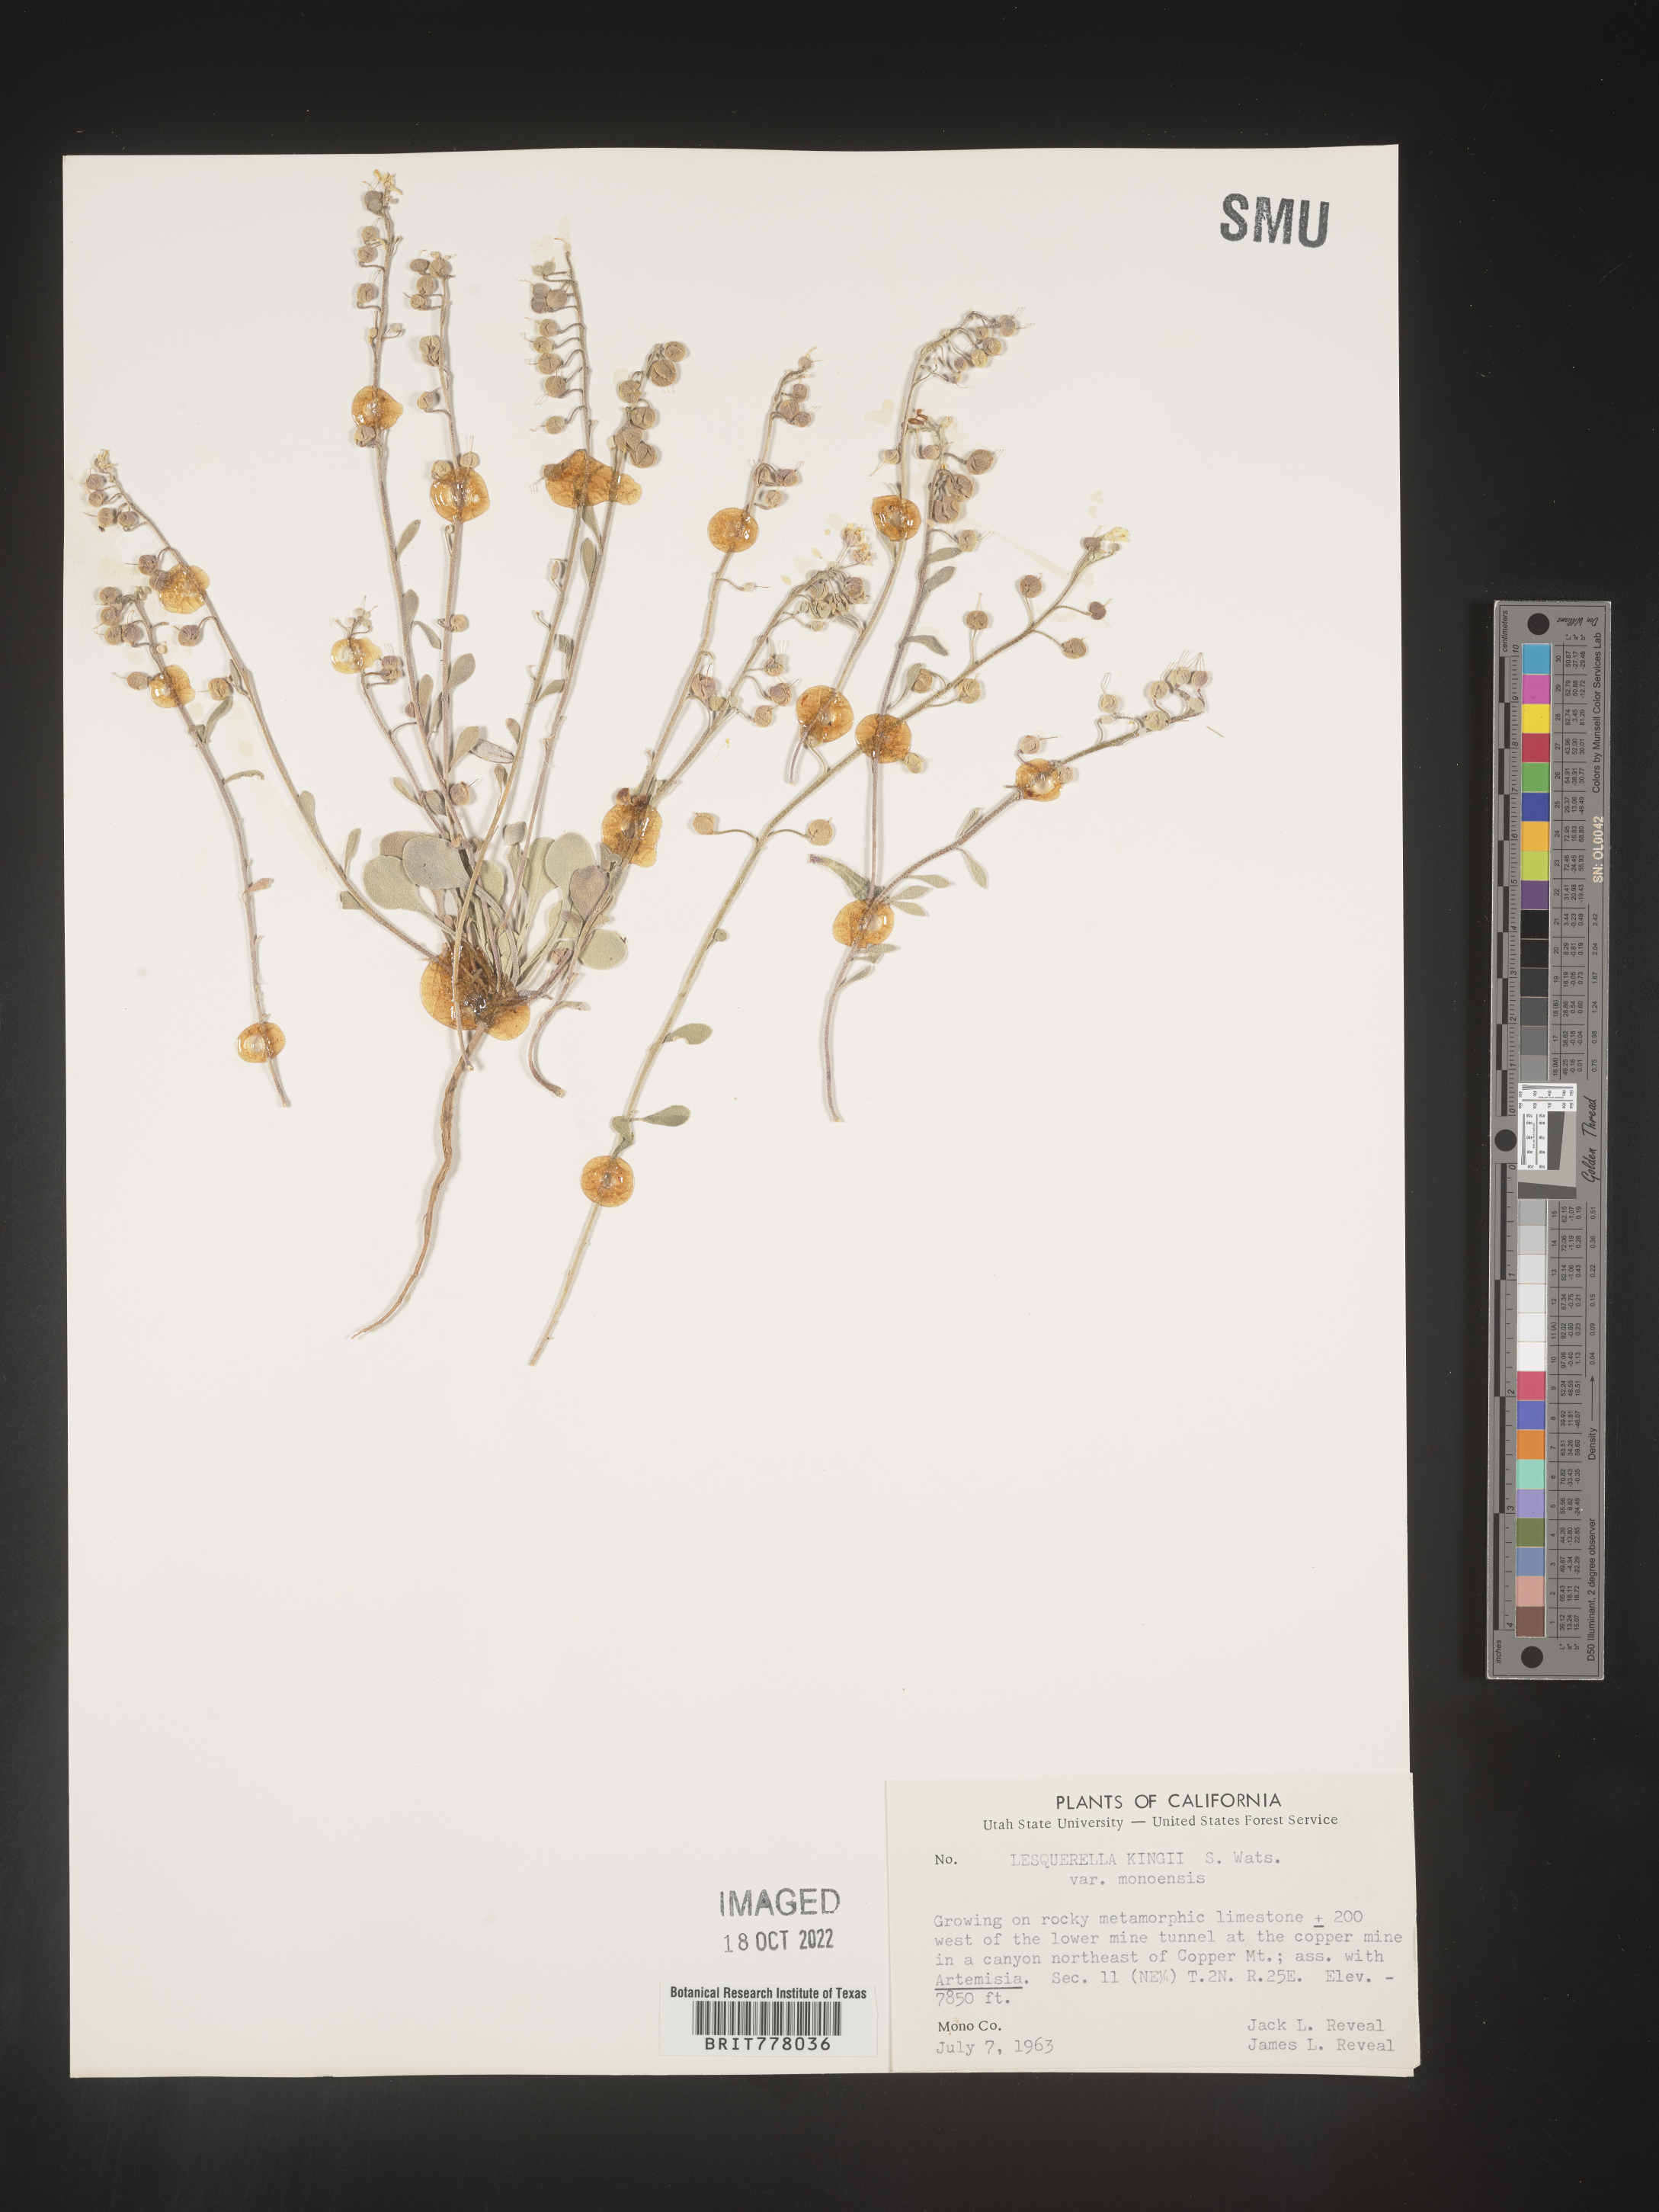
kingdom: Chromista
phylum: Cercozoa
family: Psammonobiotidae
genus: Lesquerella
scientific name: Lesquerella
